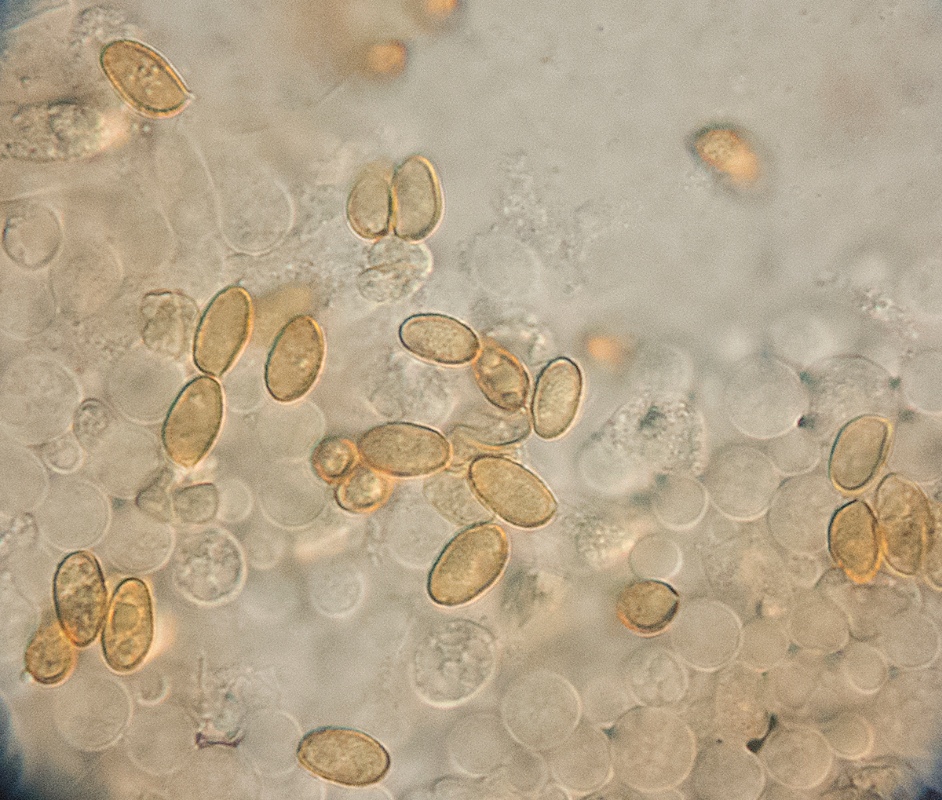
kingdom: Fungi
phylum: Basidiomycota
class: Agaricomycetes
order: Agaricales
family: Cortinariaceae
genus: Cortinarius
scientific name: Cortinarius acutus
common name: Peaked webcap
